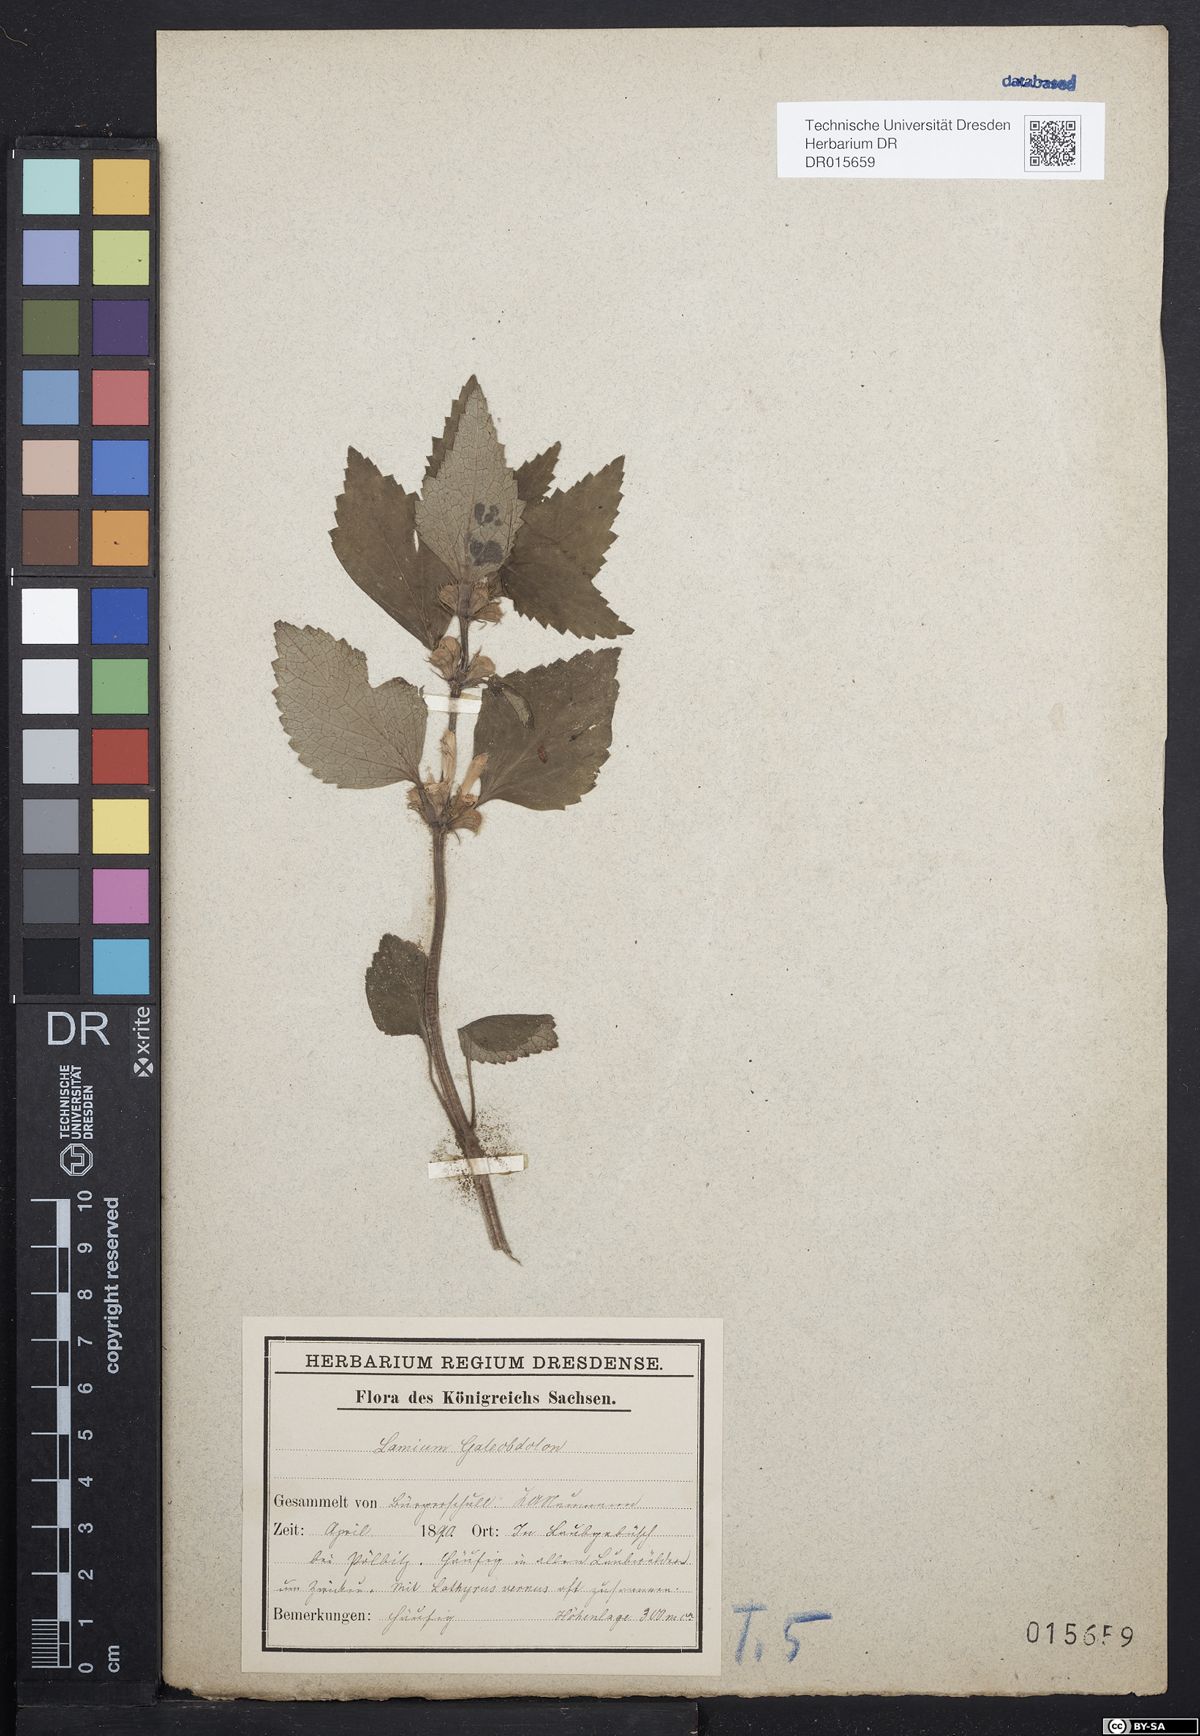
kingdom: Plantae
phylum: Tracheophyta
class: Magnoliopsida
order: Lamiales
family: Lamiaceae
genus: Lamium
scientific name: Lamium galeobdolon
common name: Yellow archangel
